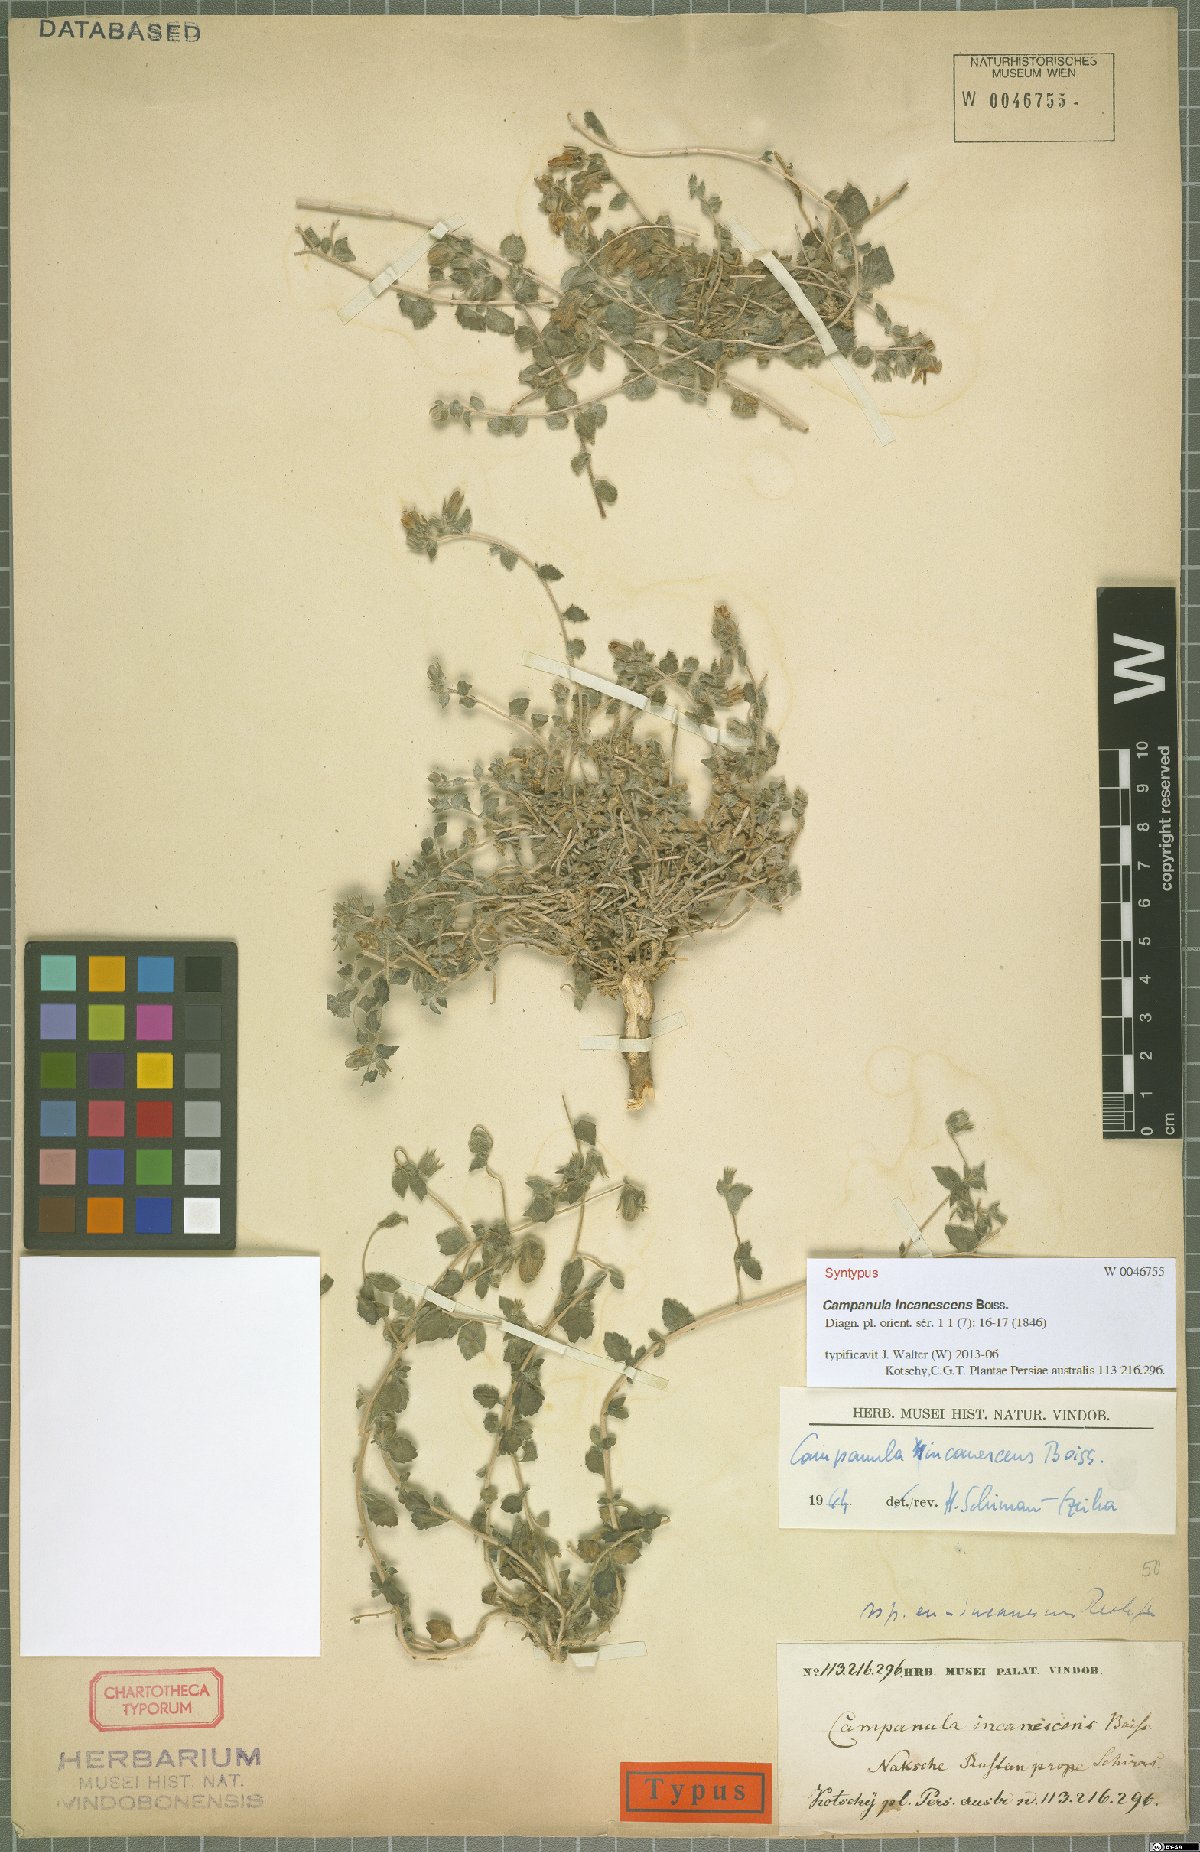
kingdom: Plantae
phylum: Tracheophyta
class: Magnoliopsida
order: Asterales
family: Campanulaceae
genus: Campanula
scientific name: Campanula incanescens
